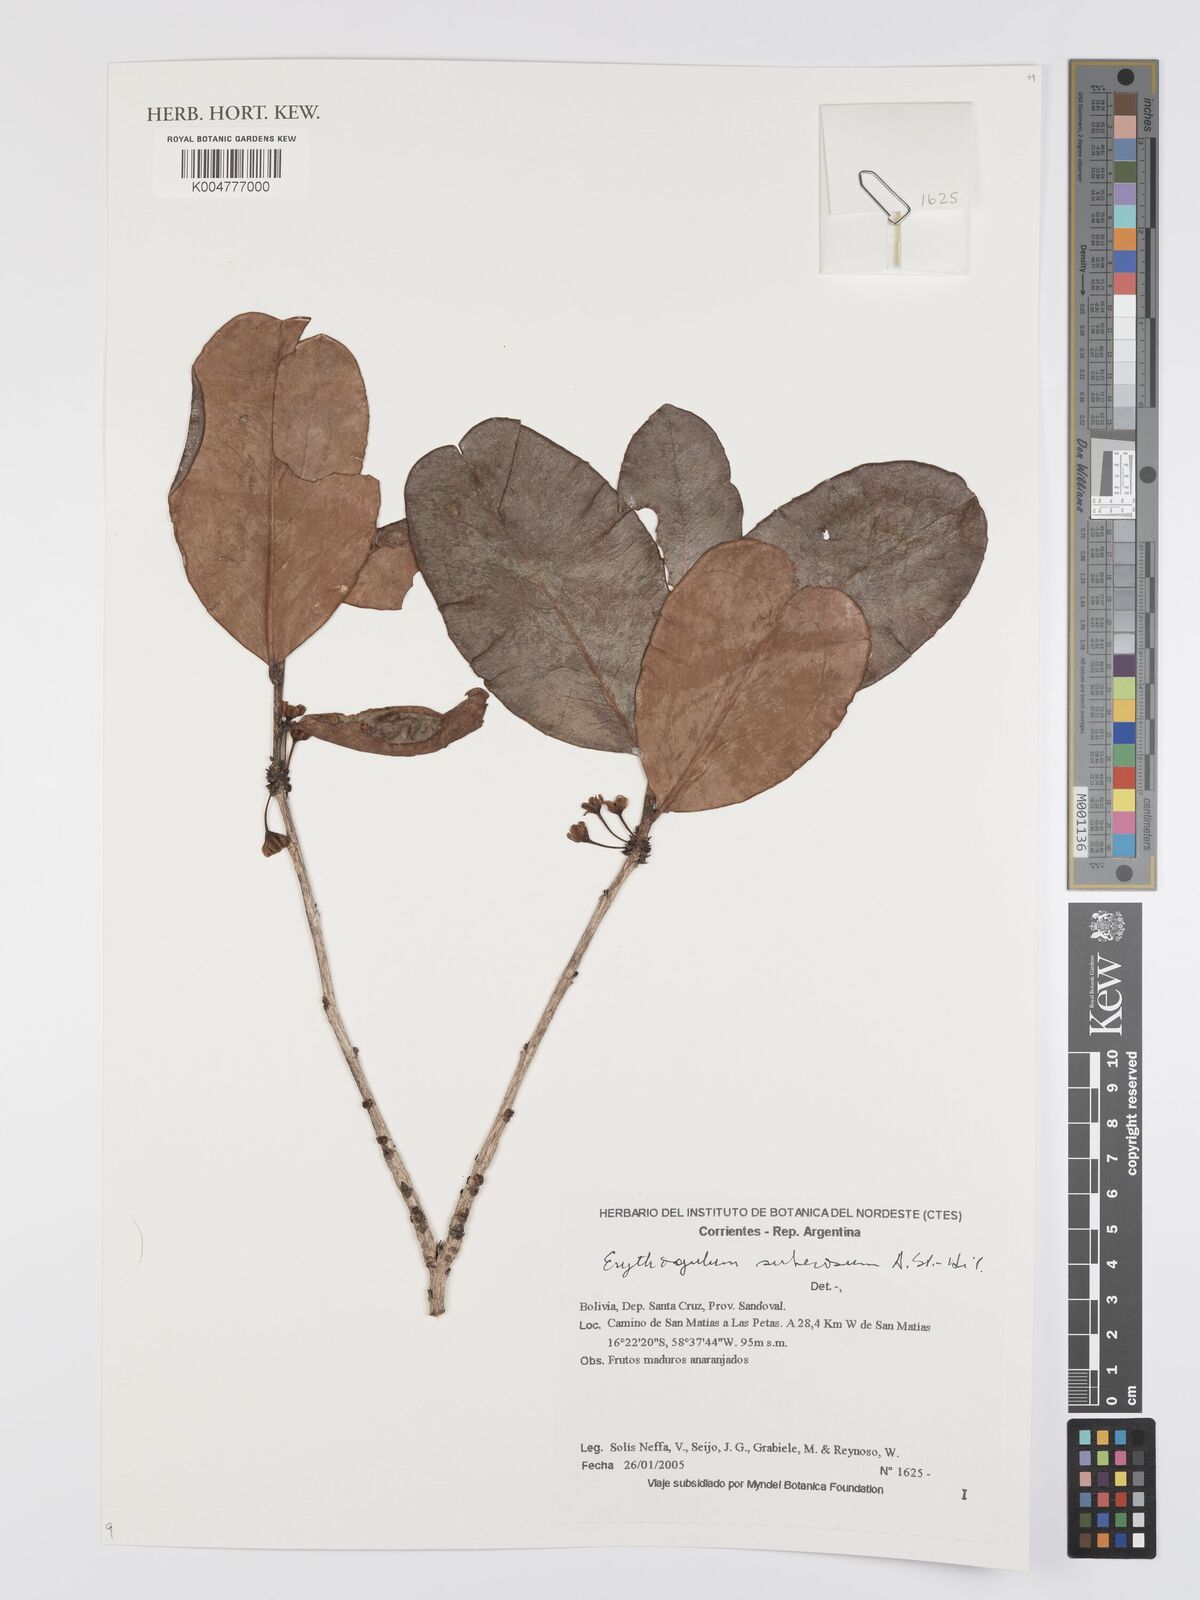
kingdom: Plantae
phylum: Tracheophyta
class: Magnoliopsida
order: Malpighiales
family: Erythroxylaceae
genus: Erythroxylum
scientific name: Erythroxylum suberosum
